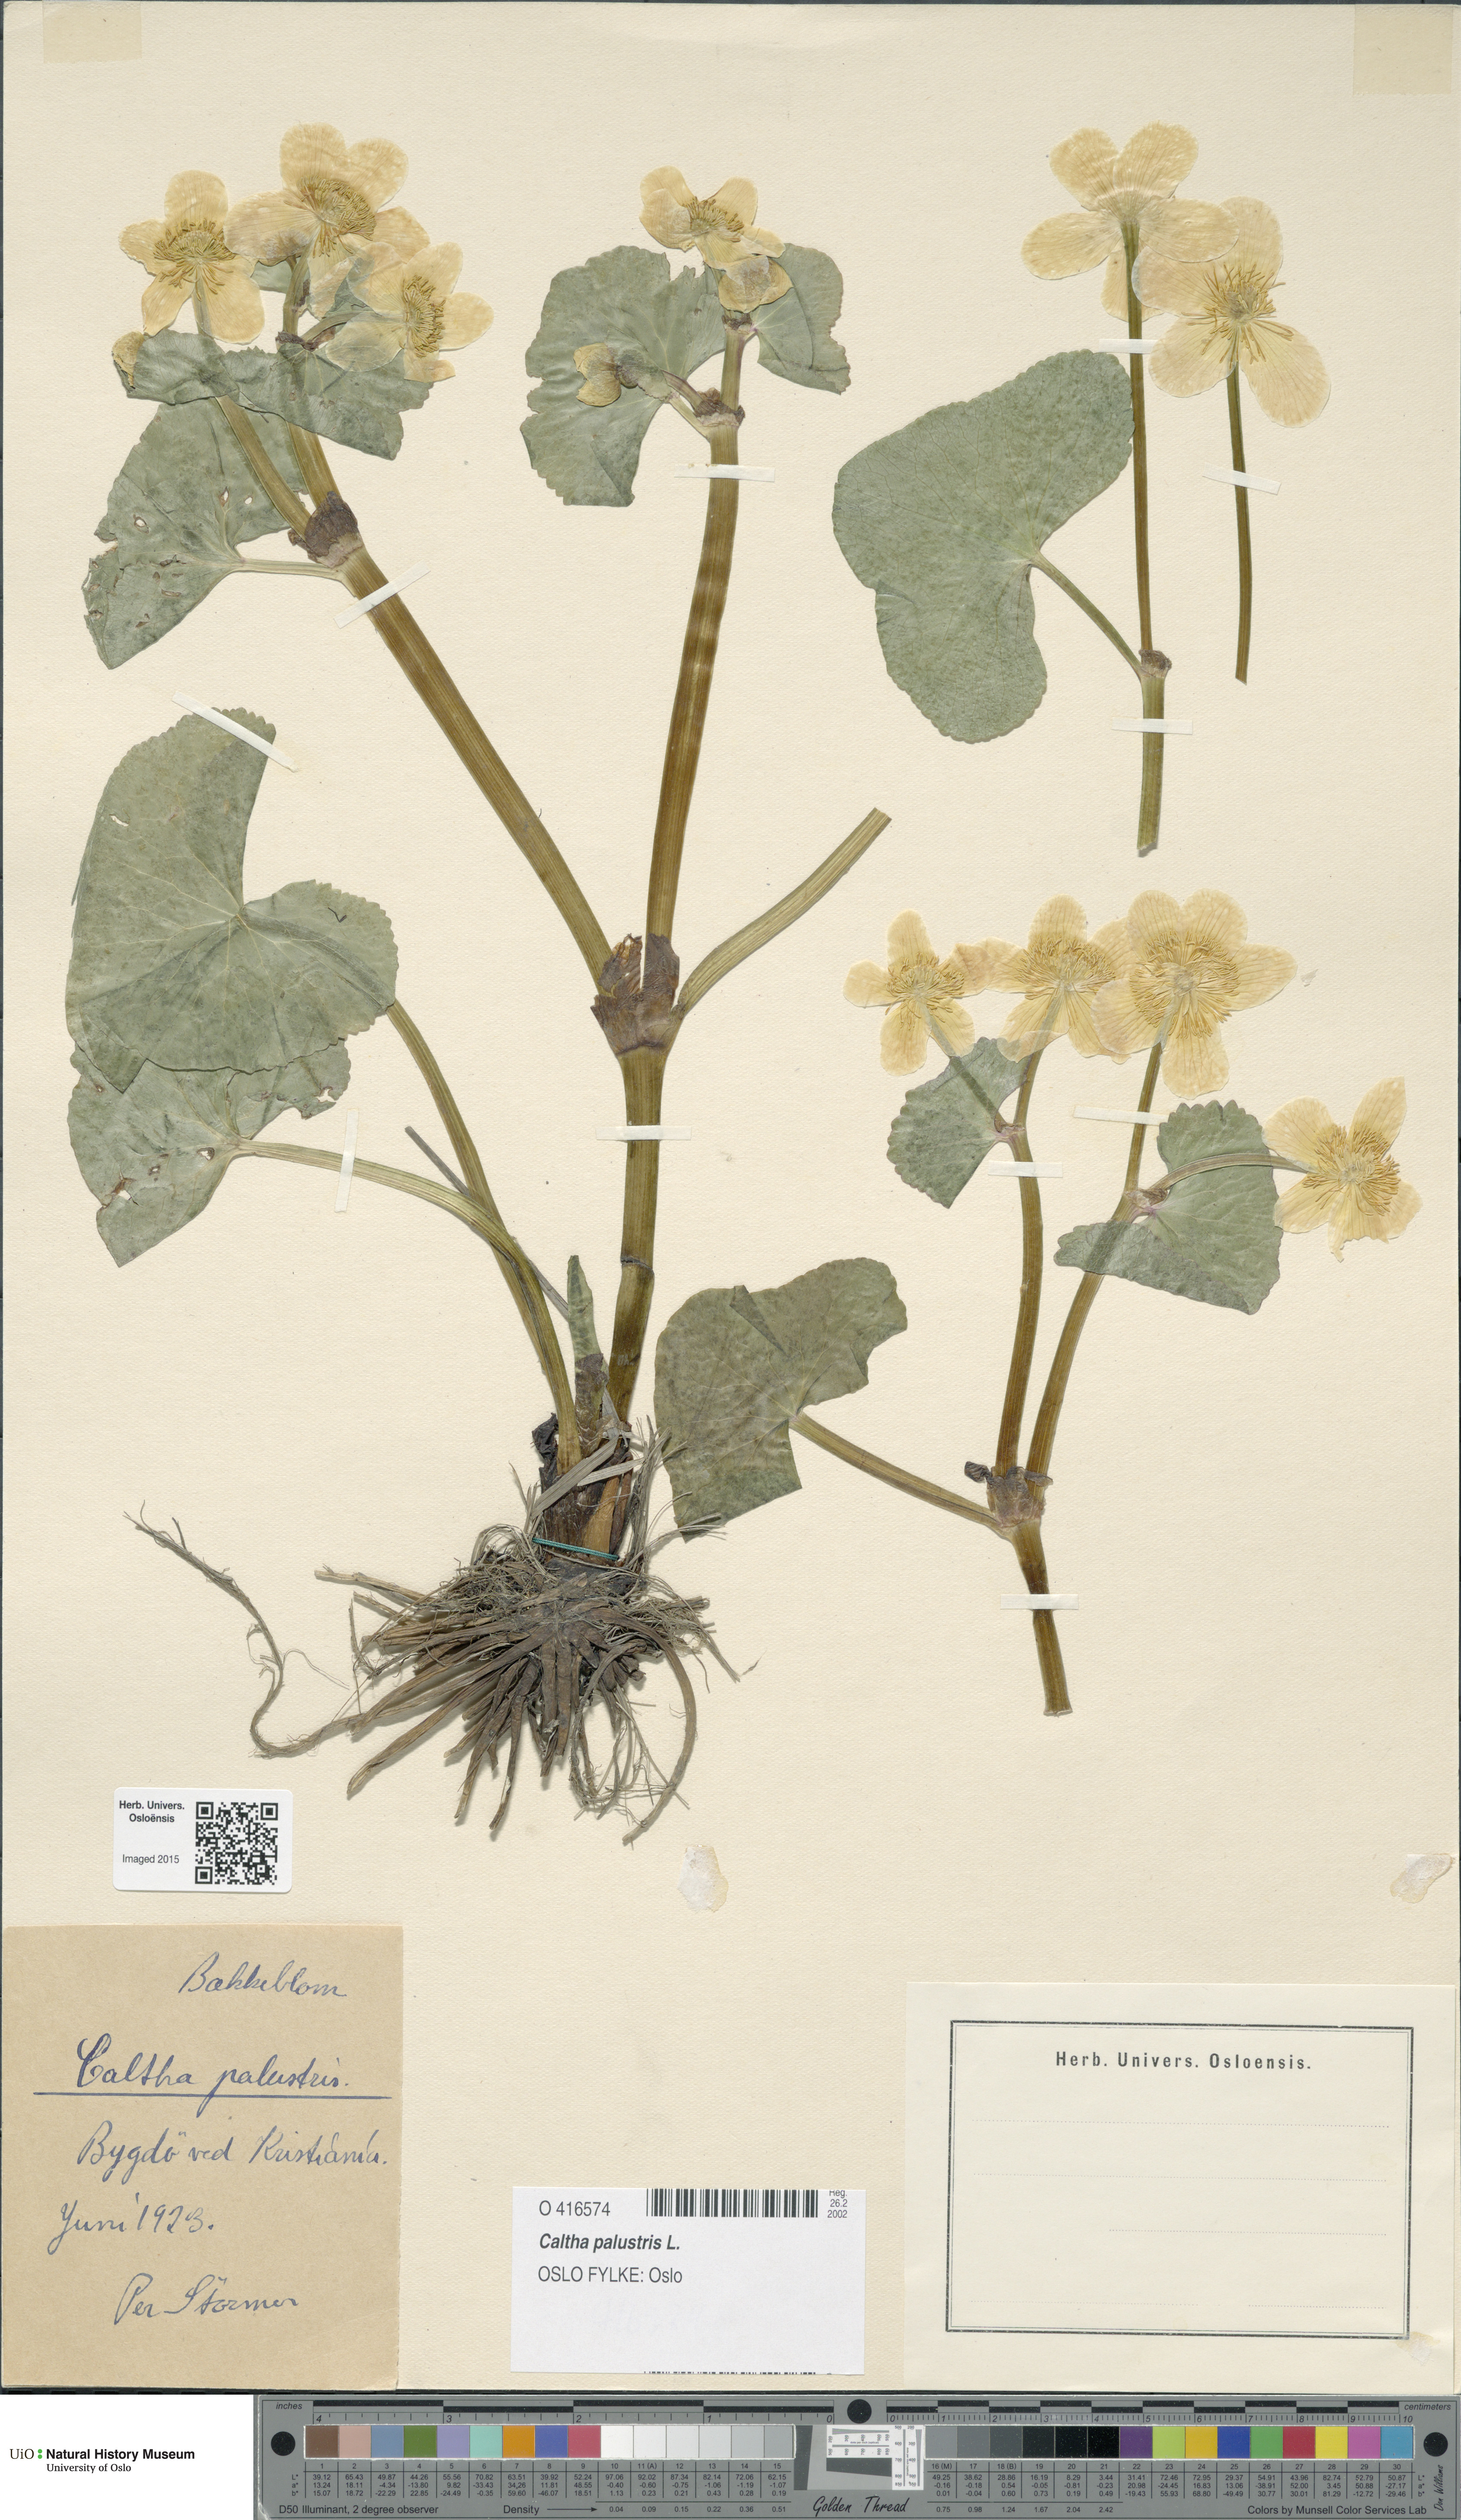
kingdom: Plantae
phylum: Tracheophyta
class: Magnoliopsida
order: Ranunculales
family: Ranunculaceae
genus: Caltha
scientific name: Caltha palustris
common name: Marsh marigold
